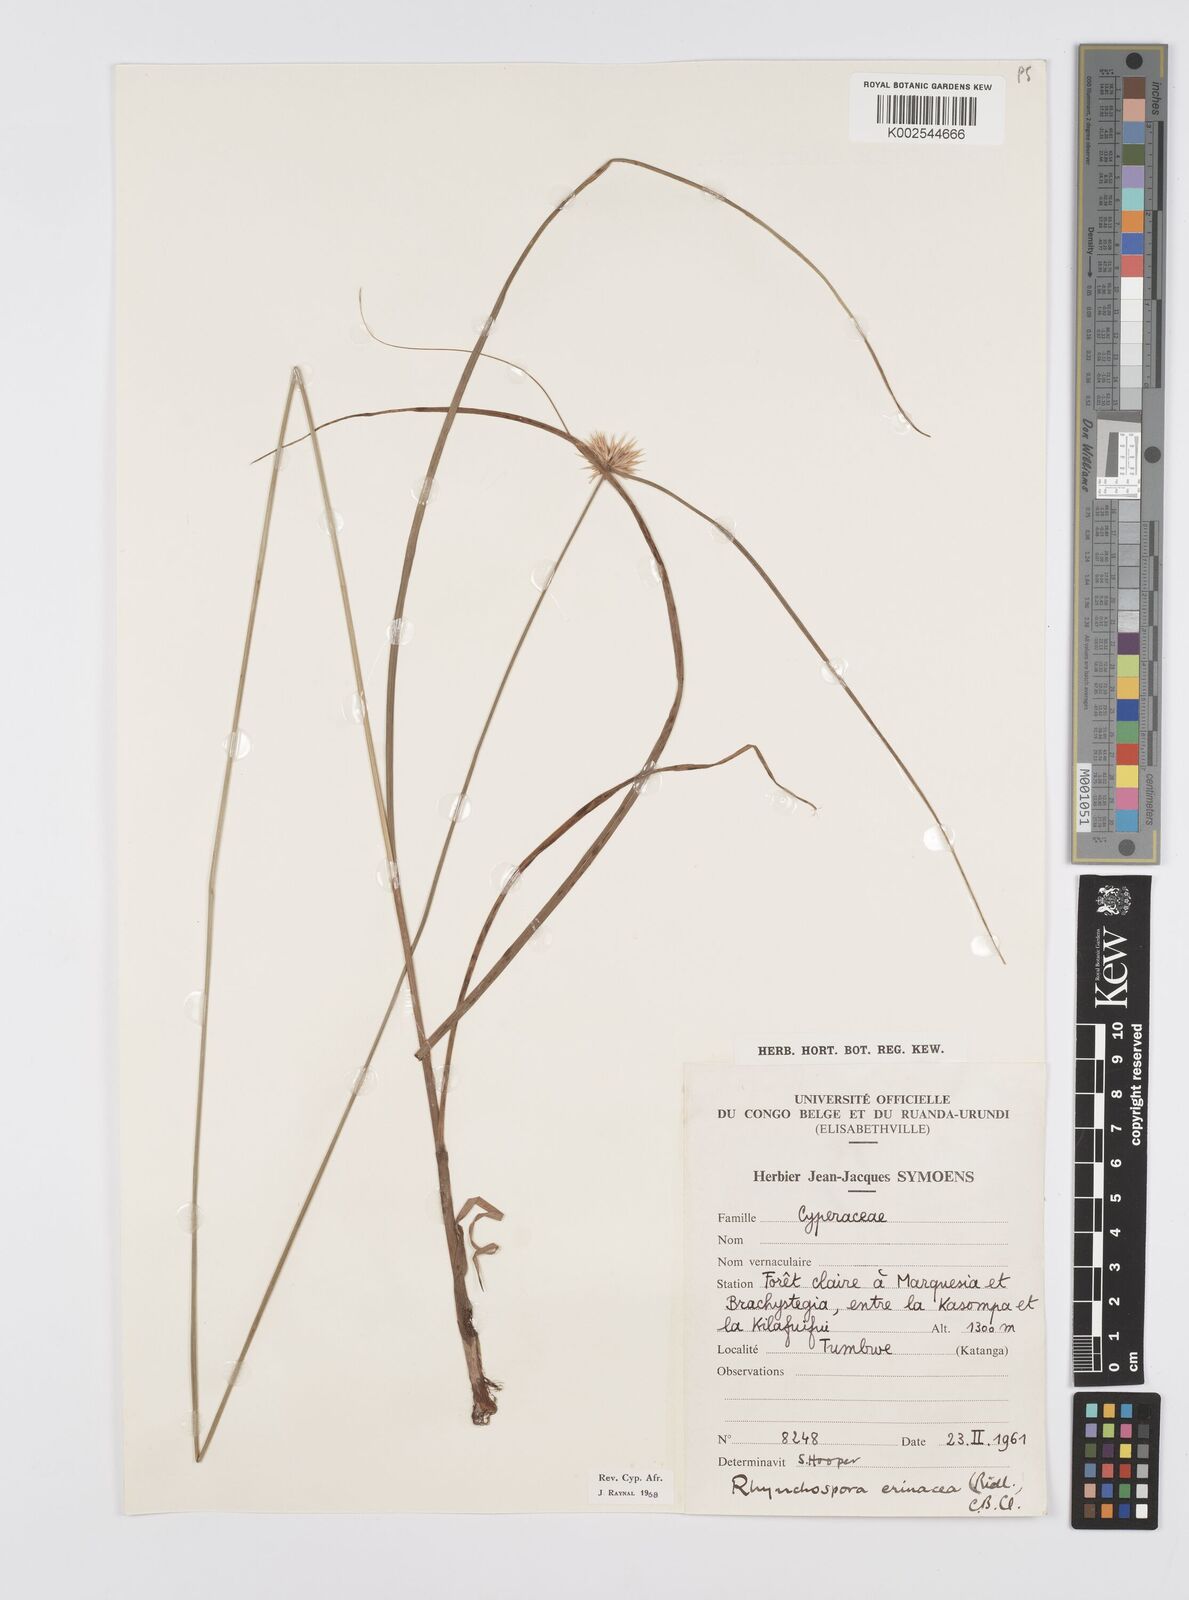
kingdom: Plantae
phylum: Tracheophyta
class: Liliopsida
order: Poales
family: Cyperaceae
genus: Cyperus
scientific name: Cyperus erinaceus
